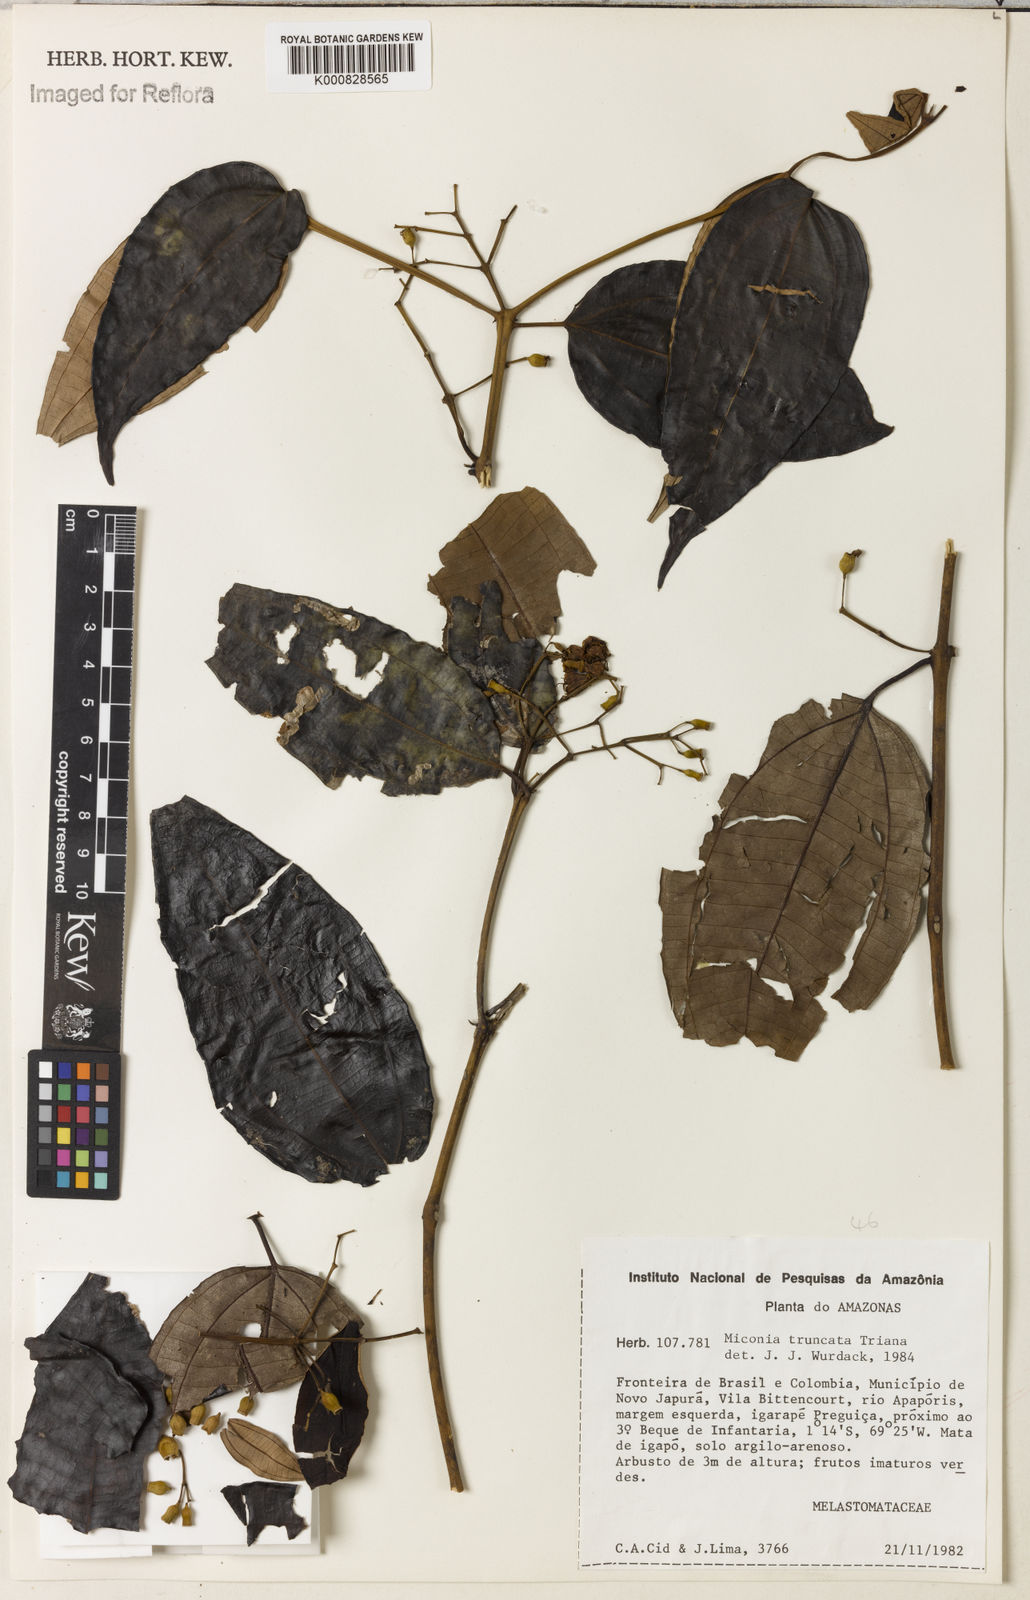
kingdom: Plantae
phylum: Tracheophyta
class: Magnoliopsida
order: Myrtales
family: Melastomataceae
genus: Miconia
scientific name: Miconia aurea
